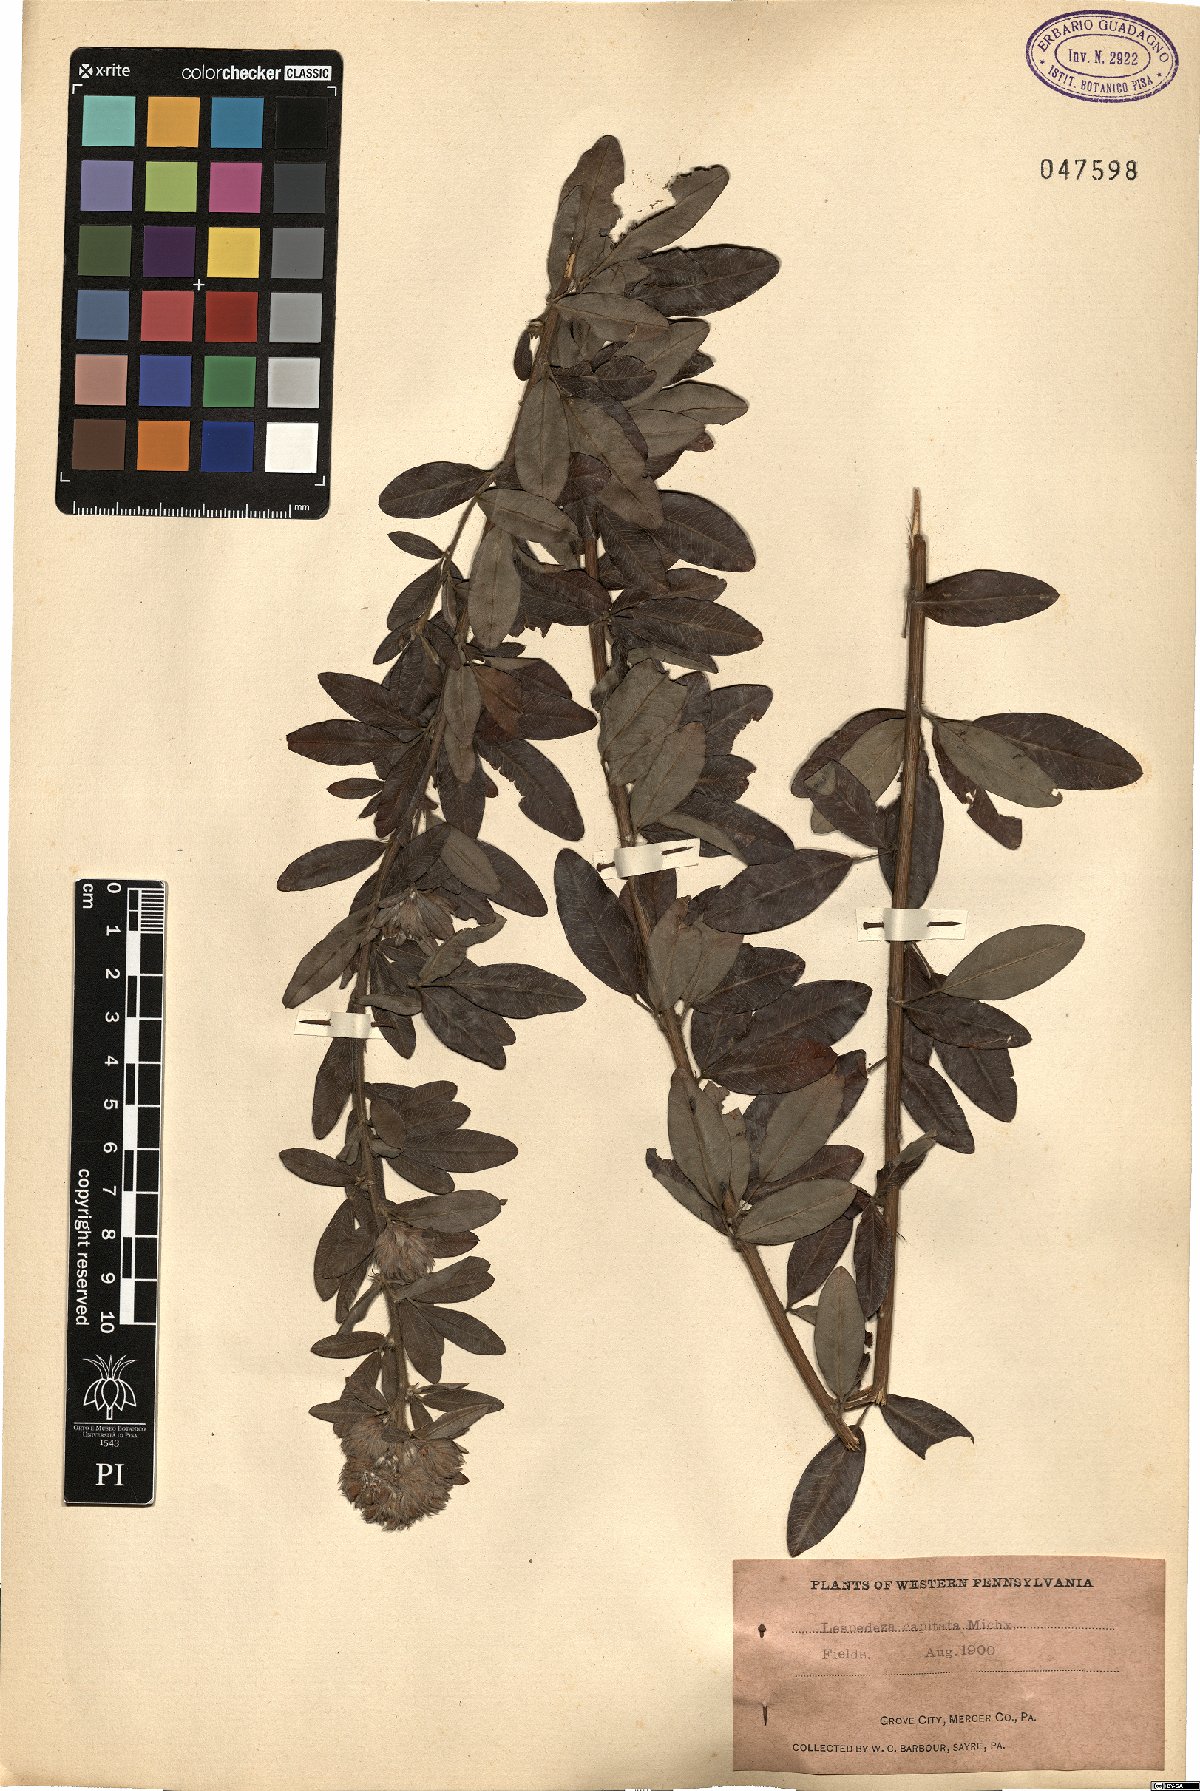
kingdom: Plantae
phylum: Tracheophyta
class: Magnoliopsida
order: Fabales
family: Fabaceae
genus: Lespedeza
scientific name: Lespedeza capitata
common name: Dusty clover
